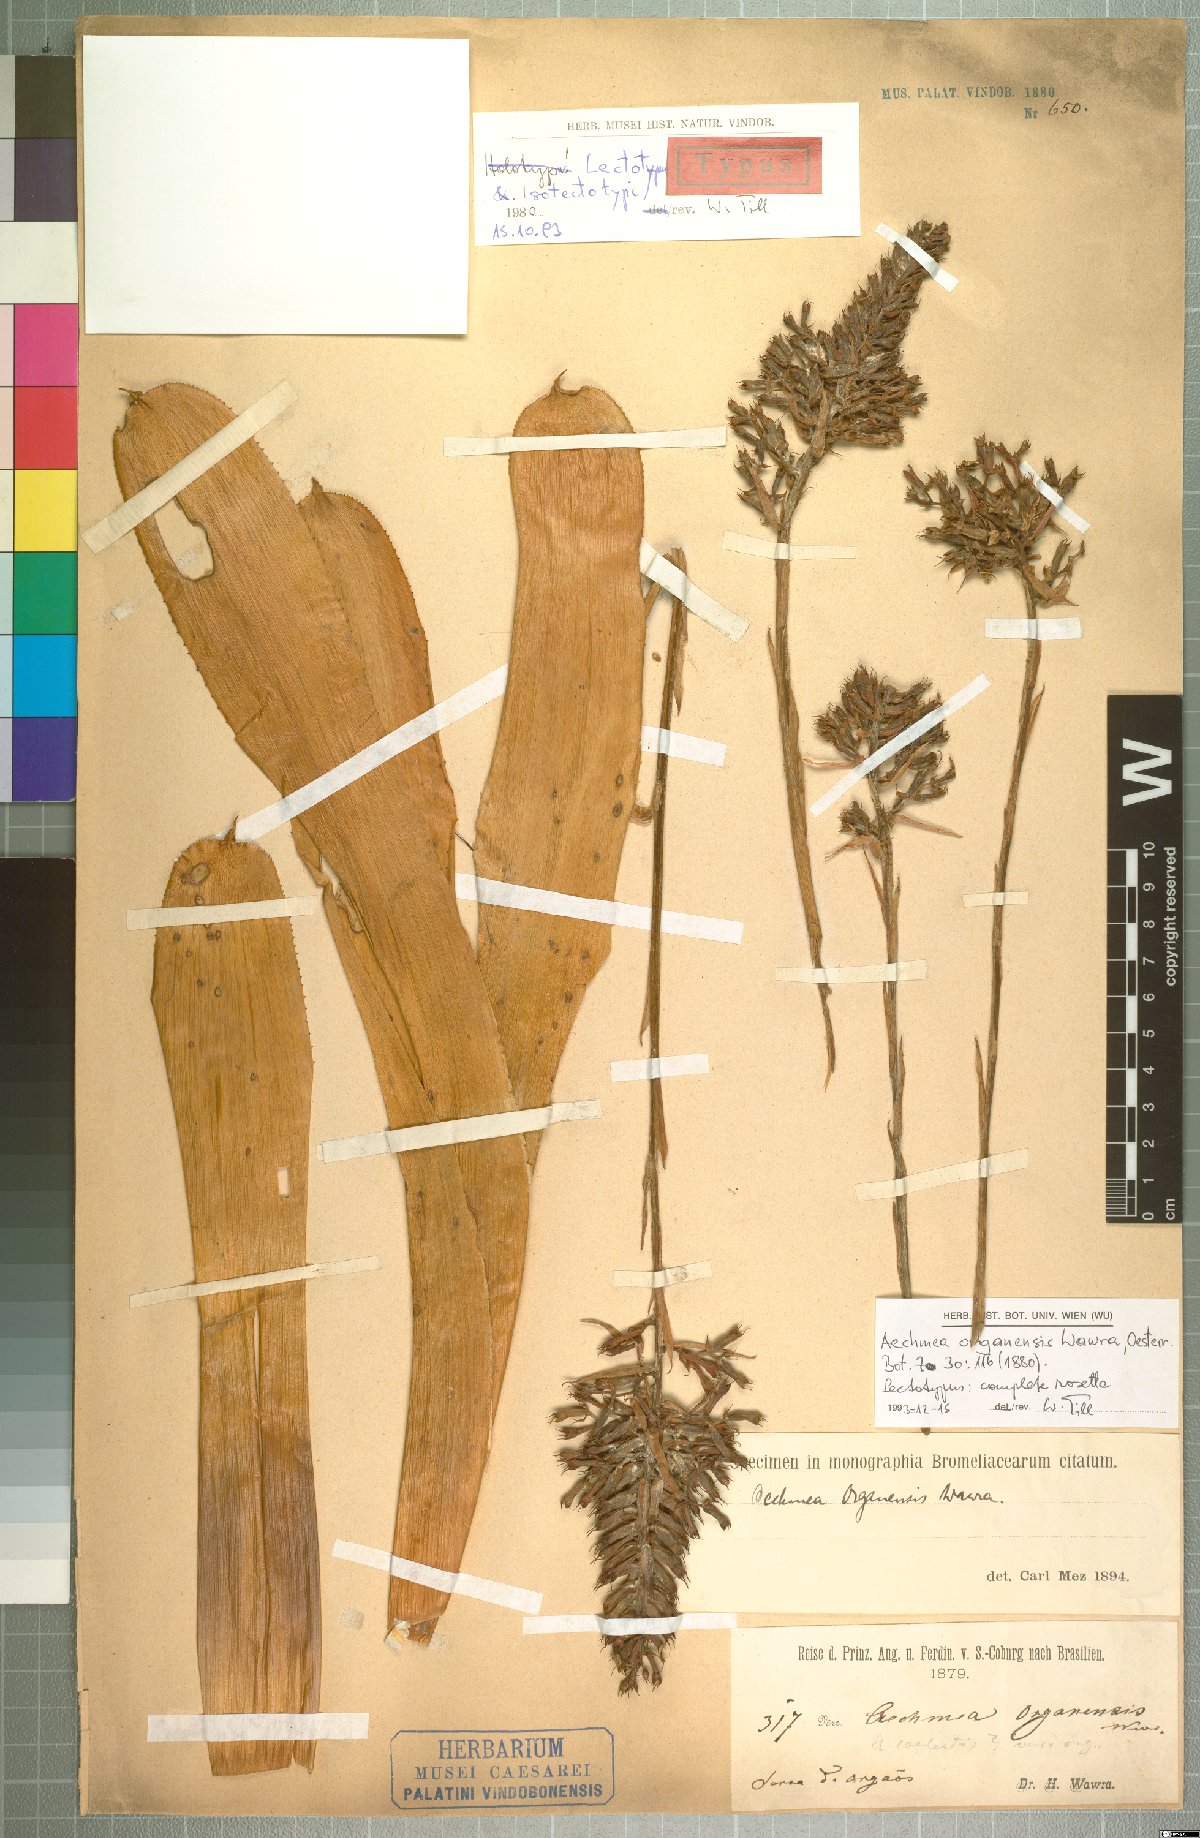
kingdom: Plantae
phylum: Tracheophyta
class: Liliopsida
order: Poales
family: Bromeliaceae
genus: Aechmea
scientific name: Aechmea organensis
